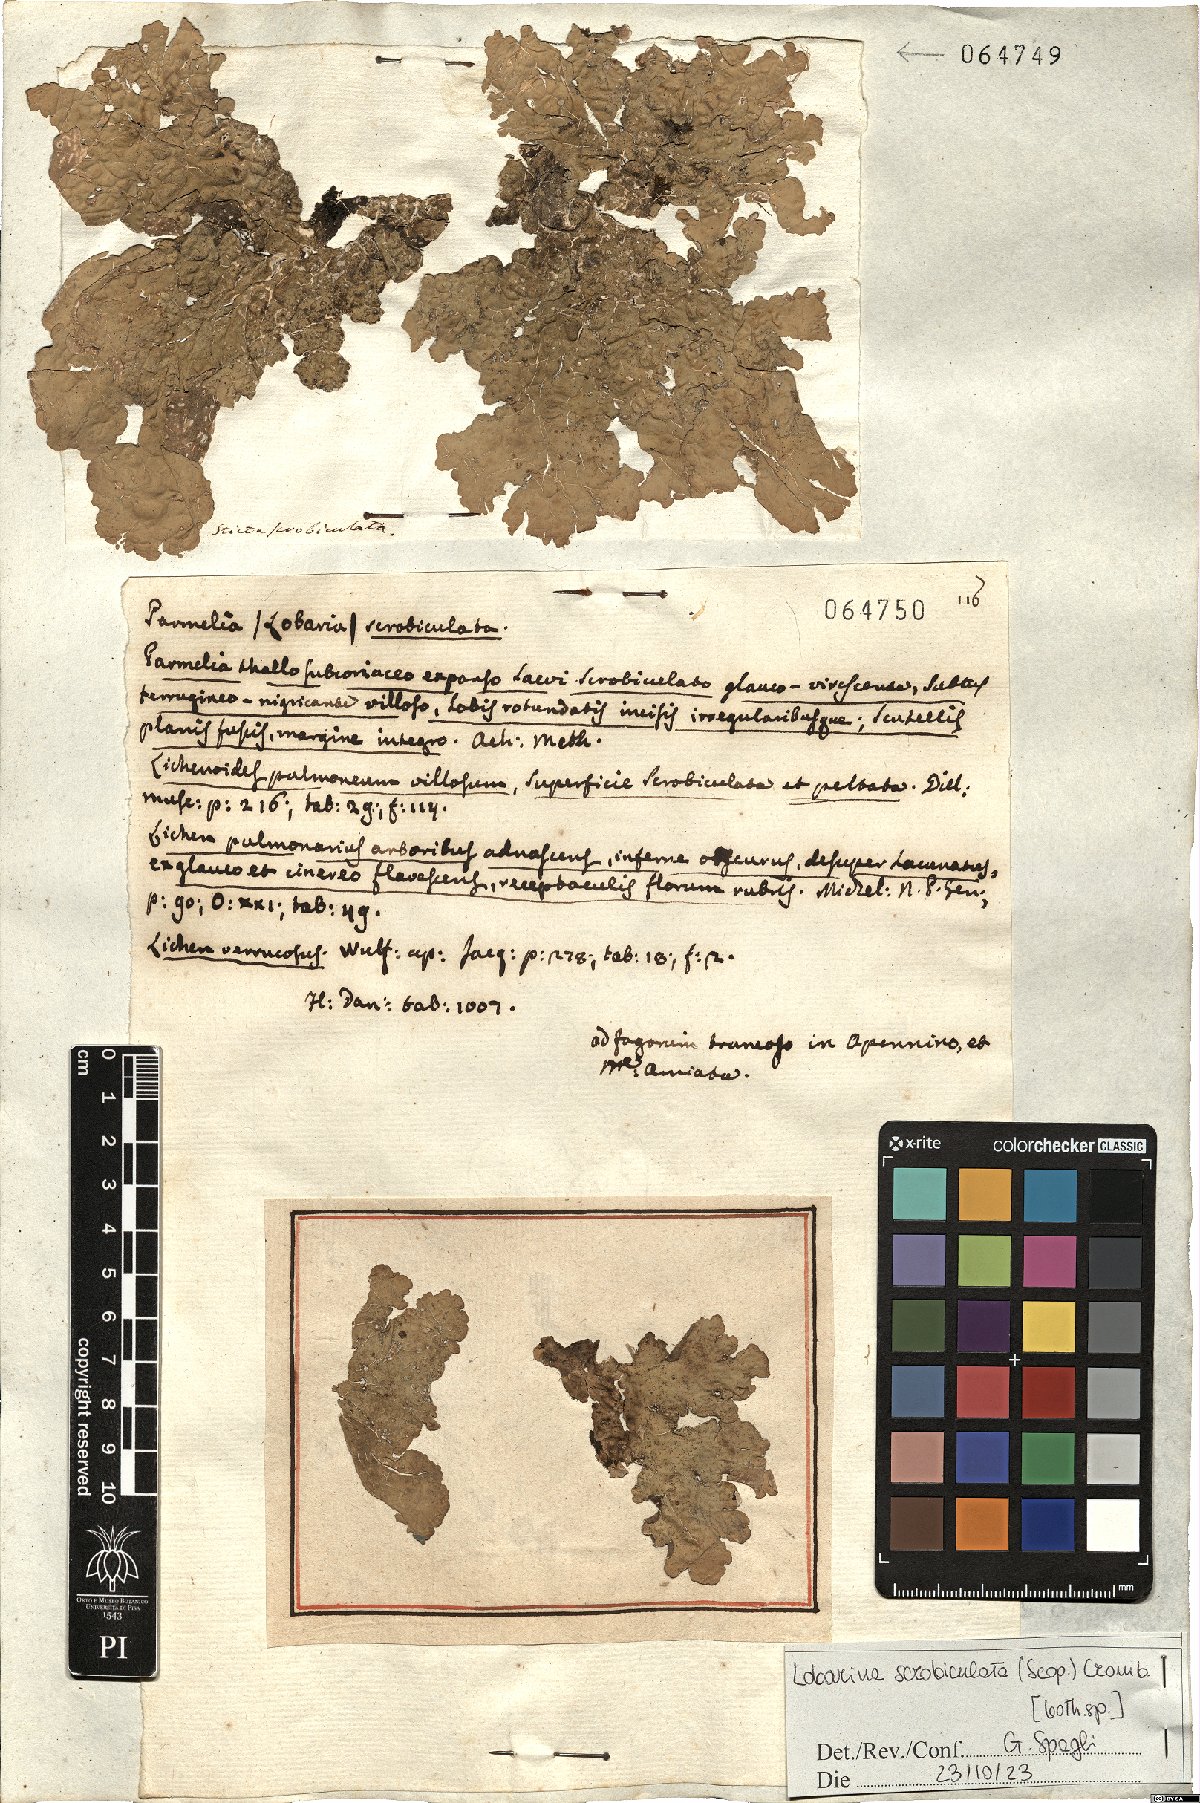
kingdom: Fungi
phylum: Ascomycota
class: Lecanoromycetes
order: Peltigerales
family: Lobariaceae
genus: Lobarina
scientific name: Lobarina scrobiculata
